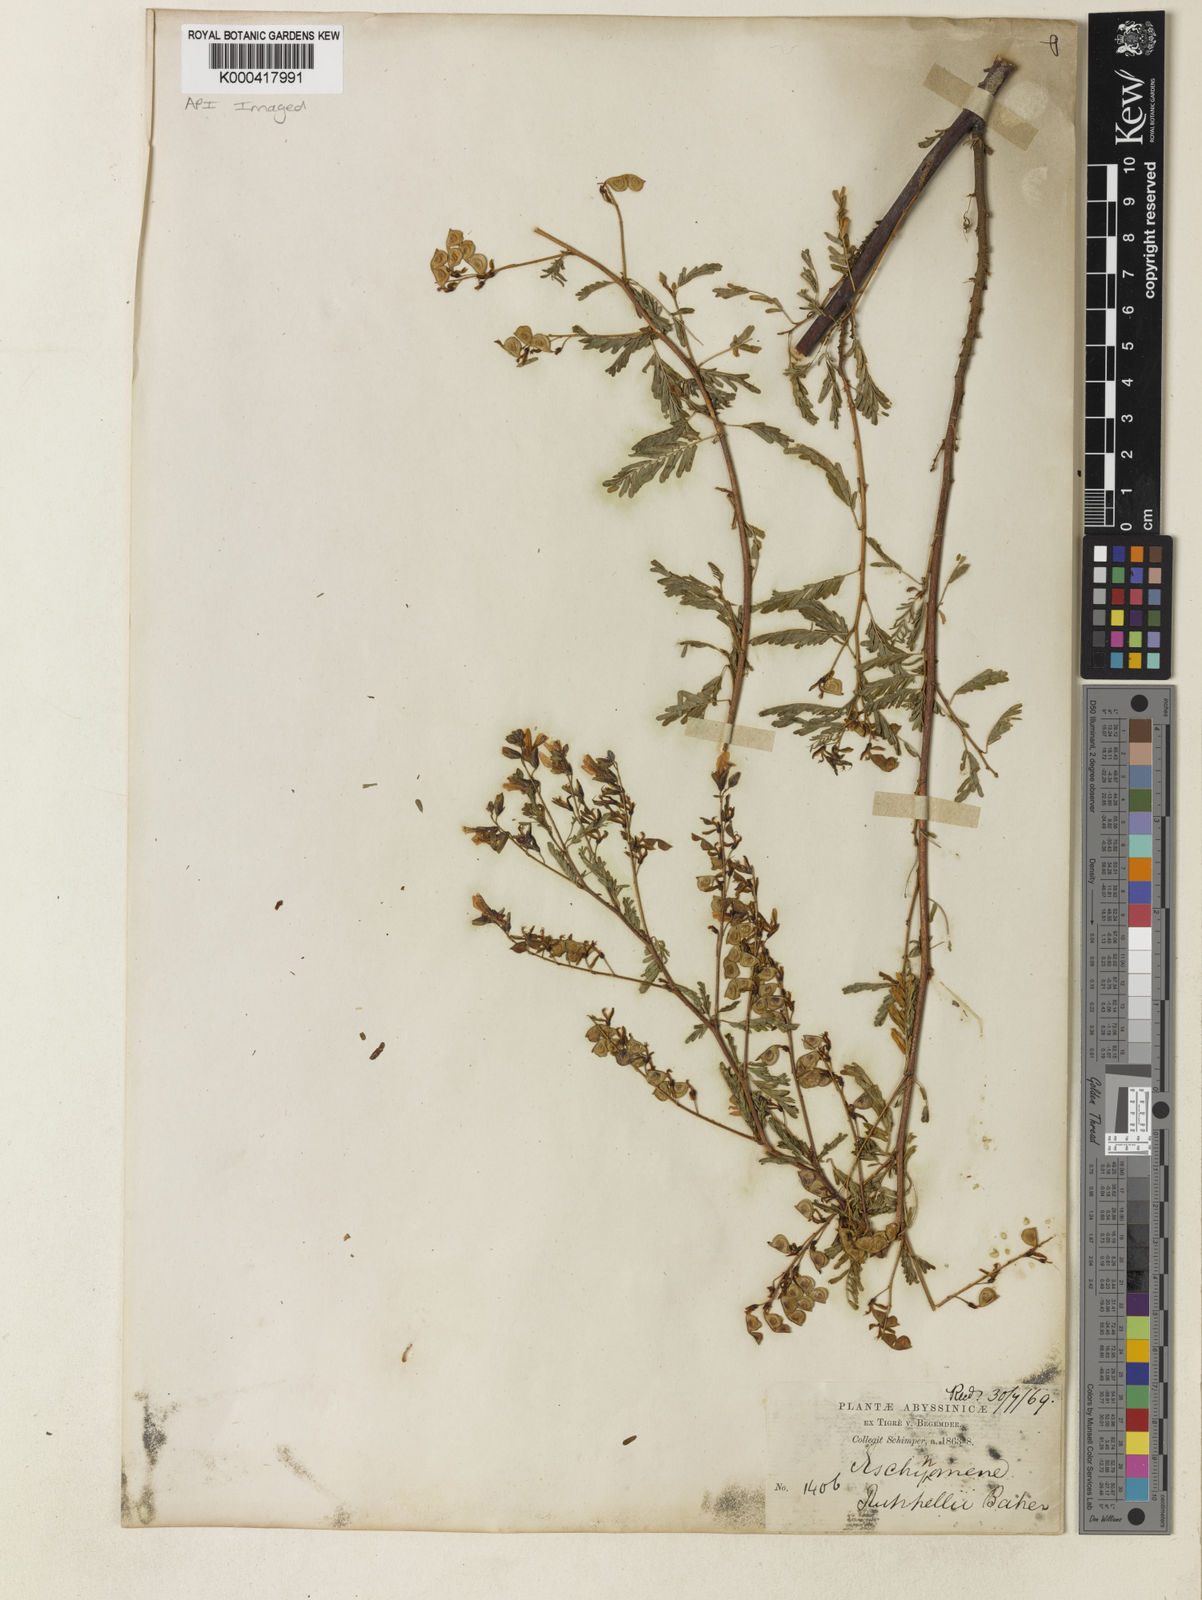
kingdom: Plantae
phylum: Tracheophyta
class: Magnoliopsida
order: Fabales
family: Fabaceae
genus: Aeschynomene
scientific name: Aeschynomene abyssinica
